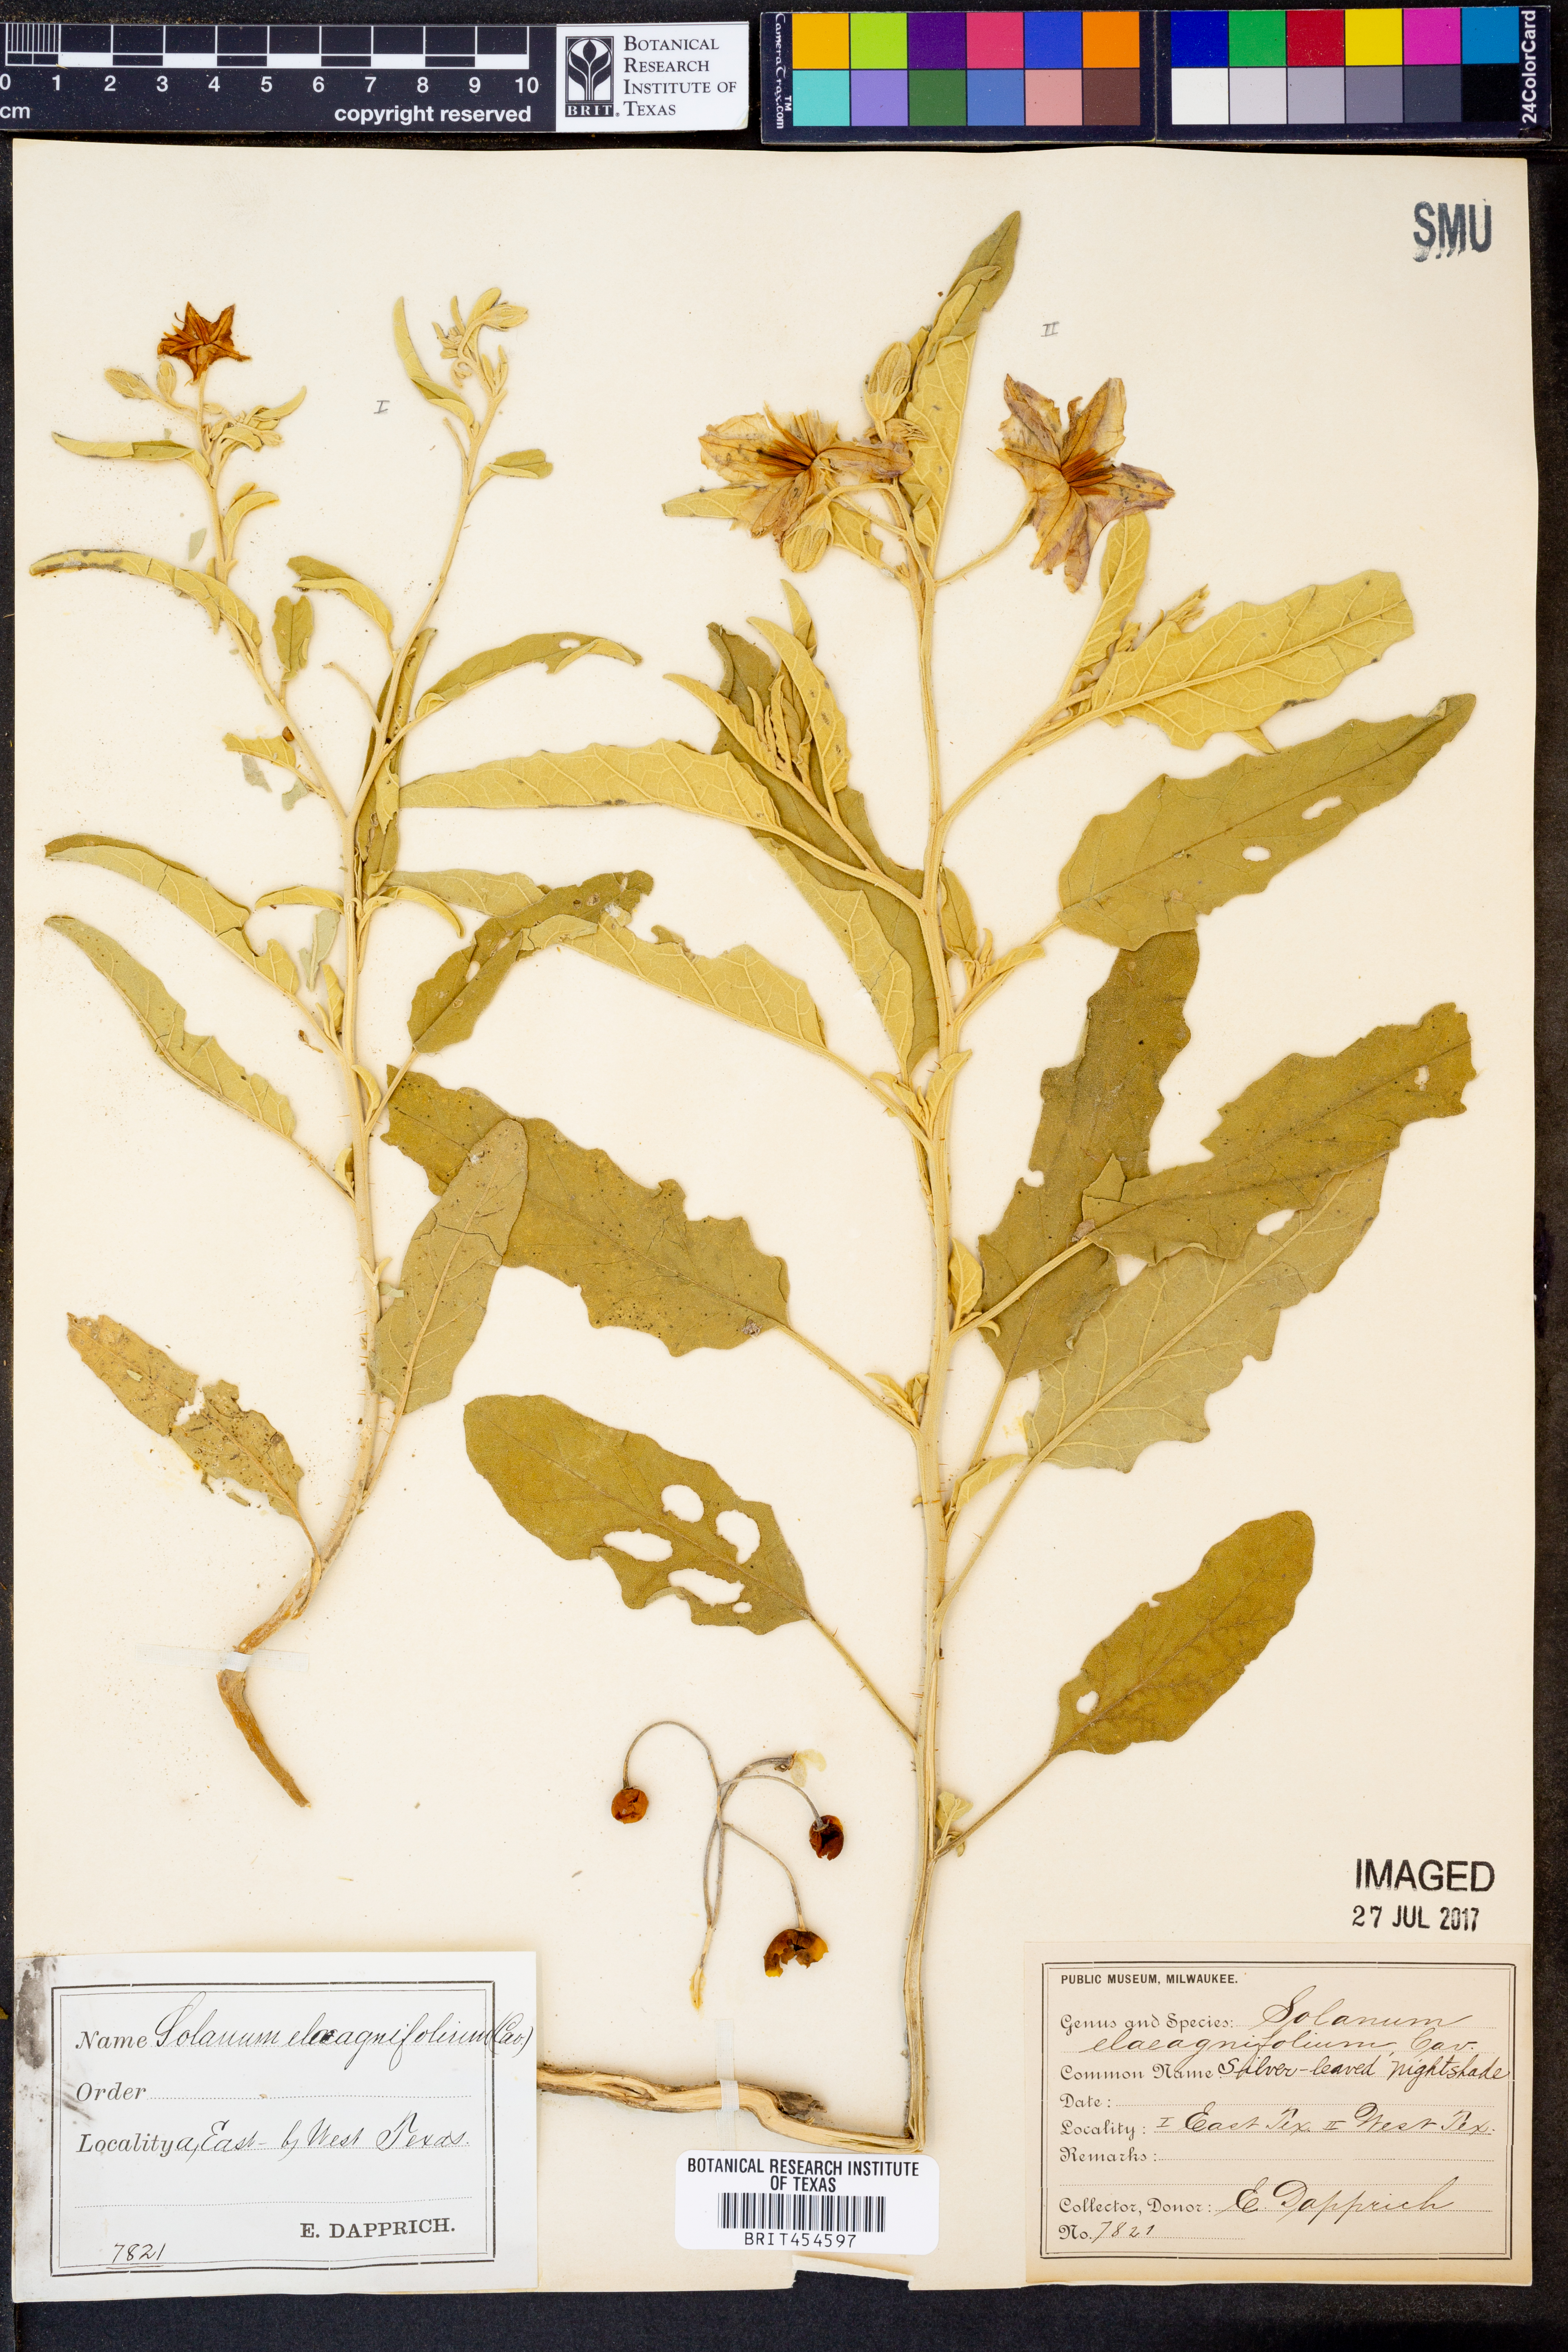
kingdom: Plantae
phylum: Tracheophyta
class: Magnoliopsida
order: Solanales
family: Solanaceae
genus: Solanum
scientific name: Solanum elaeagnifolium
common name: Silverleaf nightshade
